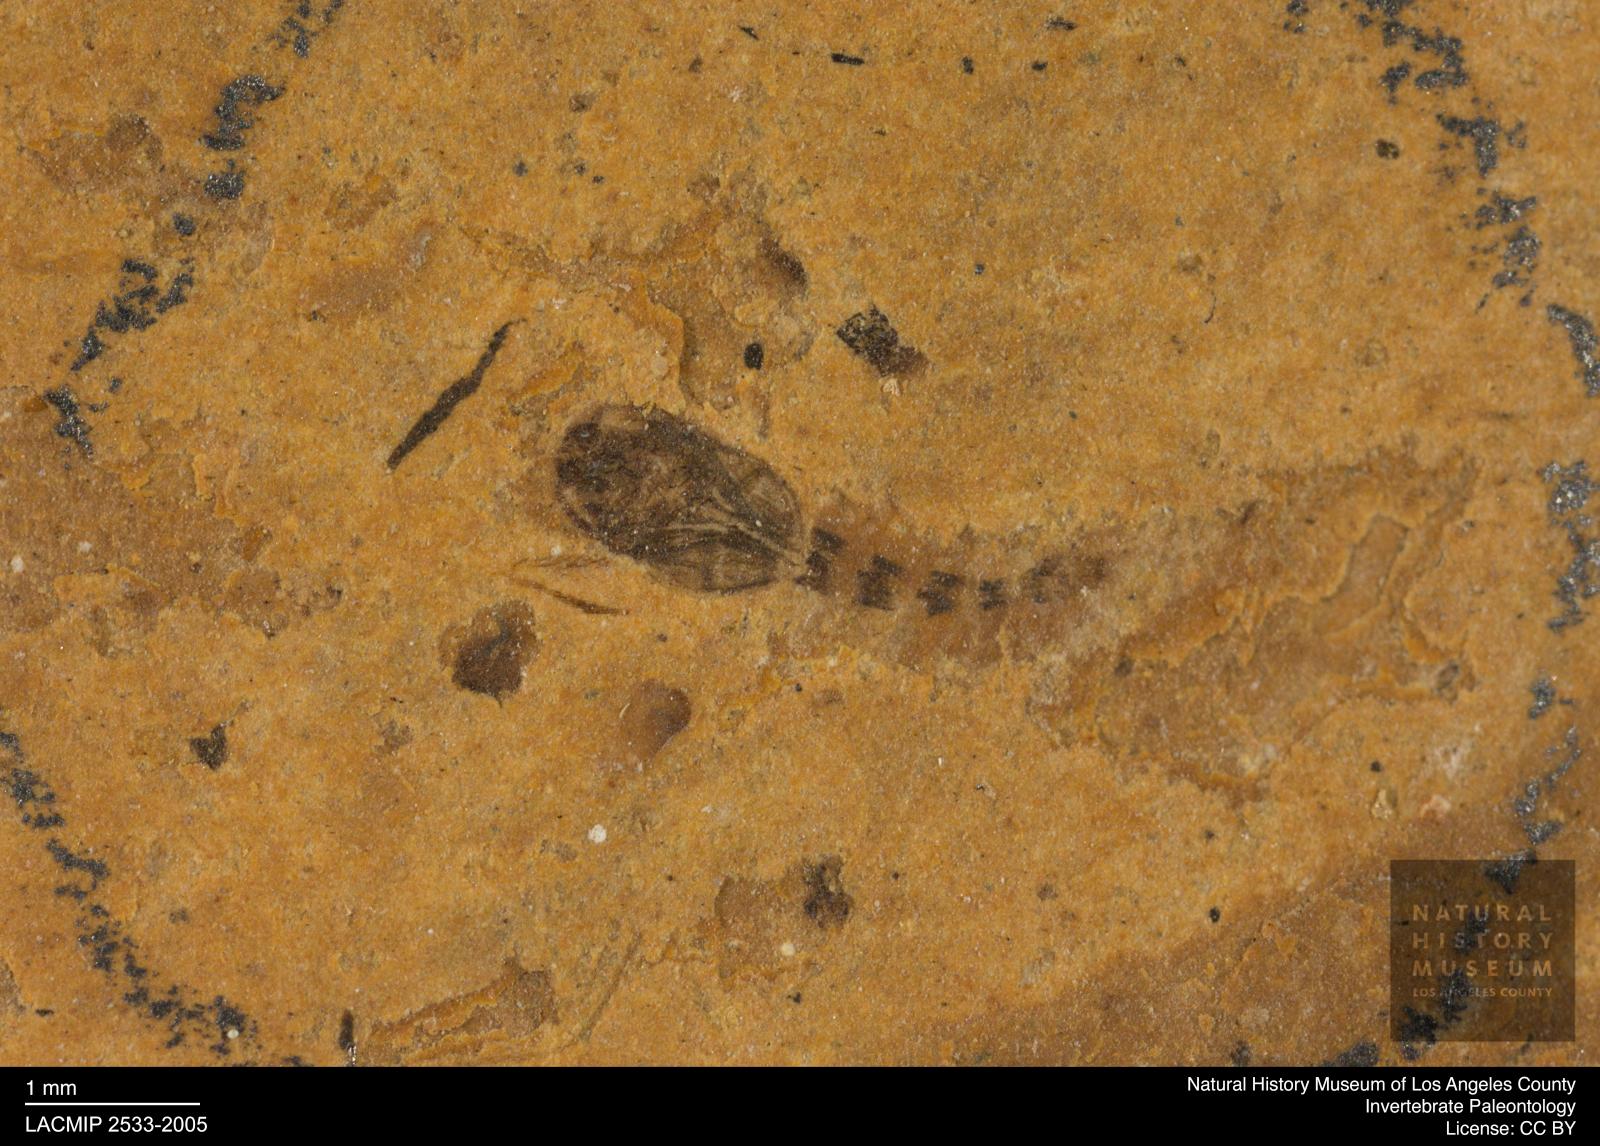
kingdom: Animalia
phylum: Arthropoda
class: Insecta
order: Diptera
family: Ceratopogonidae
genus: Ceratopogon
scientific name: Ceratopogon
